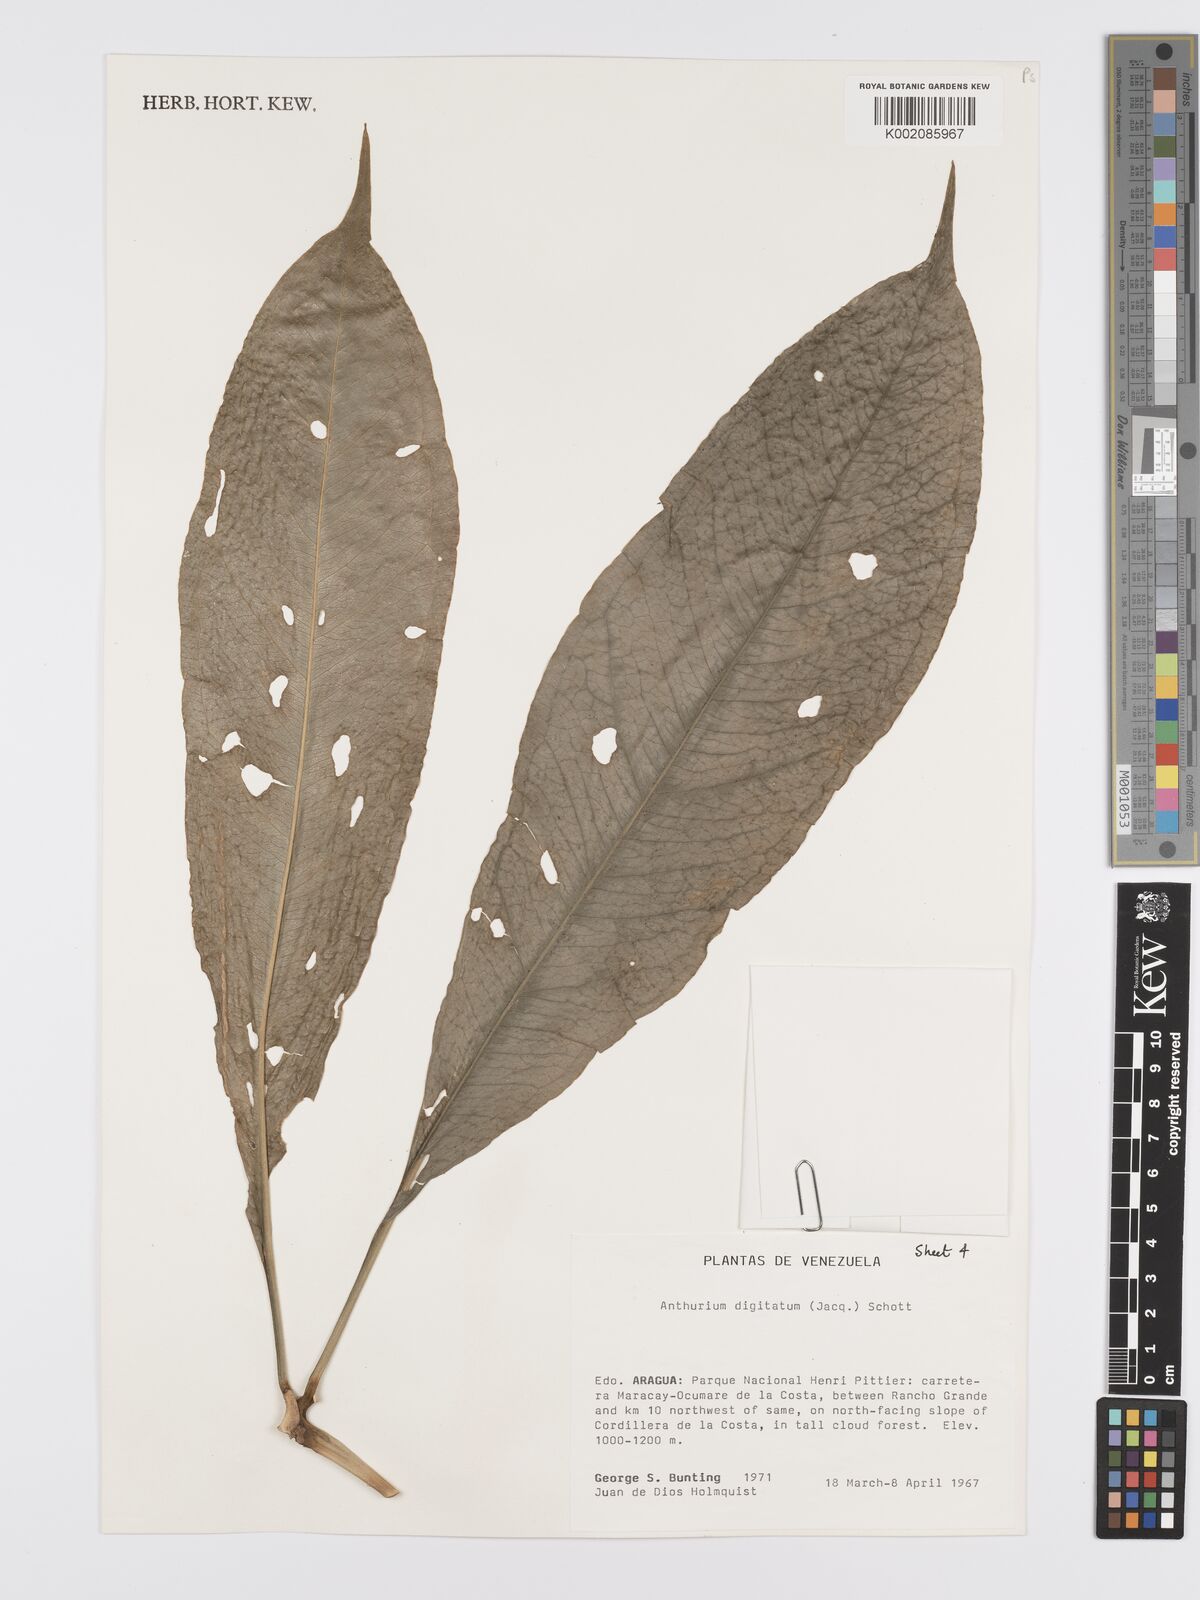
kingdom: Plantae
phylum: Tracheophyta
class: Liliopsida
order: Alismatales
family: Araceae
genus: Anthurium
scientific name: Anthurium digitatum
